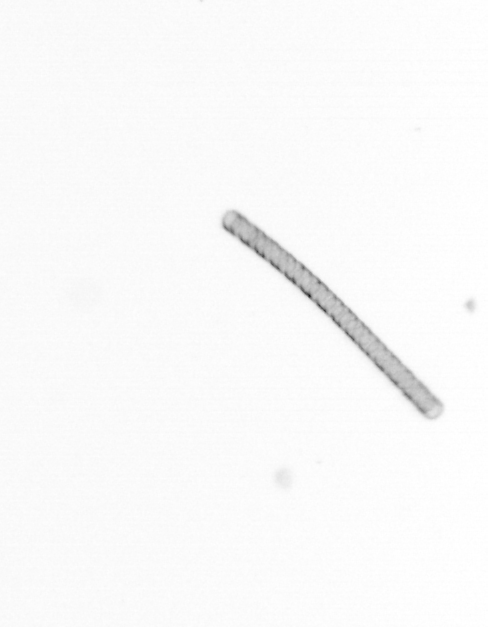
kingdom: Chromista
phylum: Ochrophyta
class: Bacillariophyceae
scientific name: Bacillariophyceae
